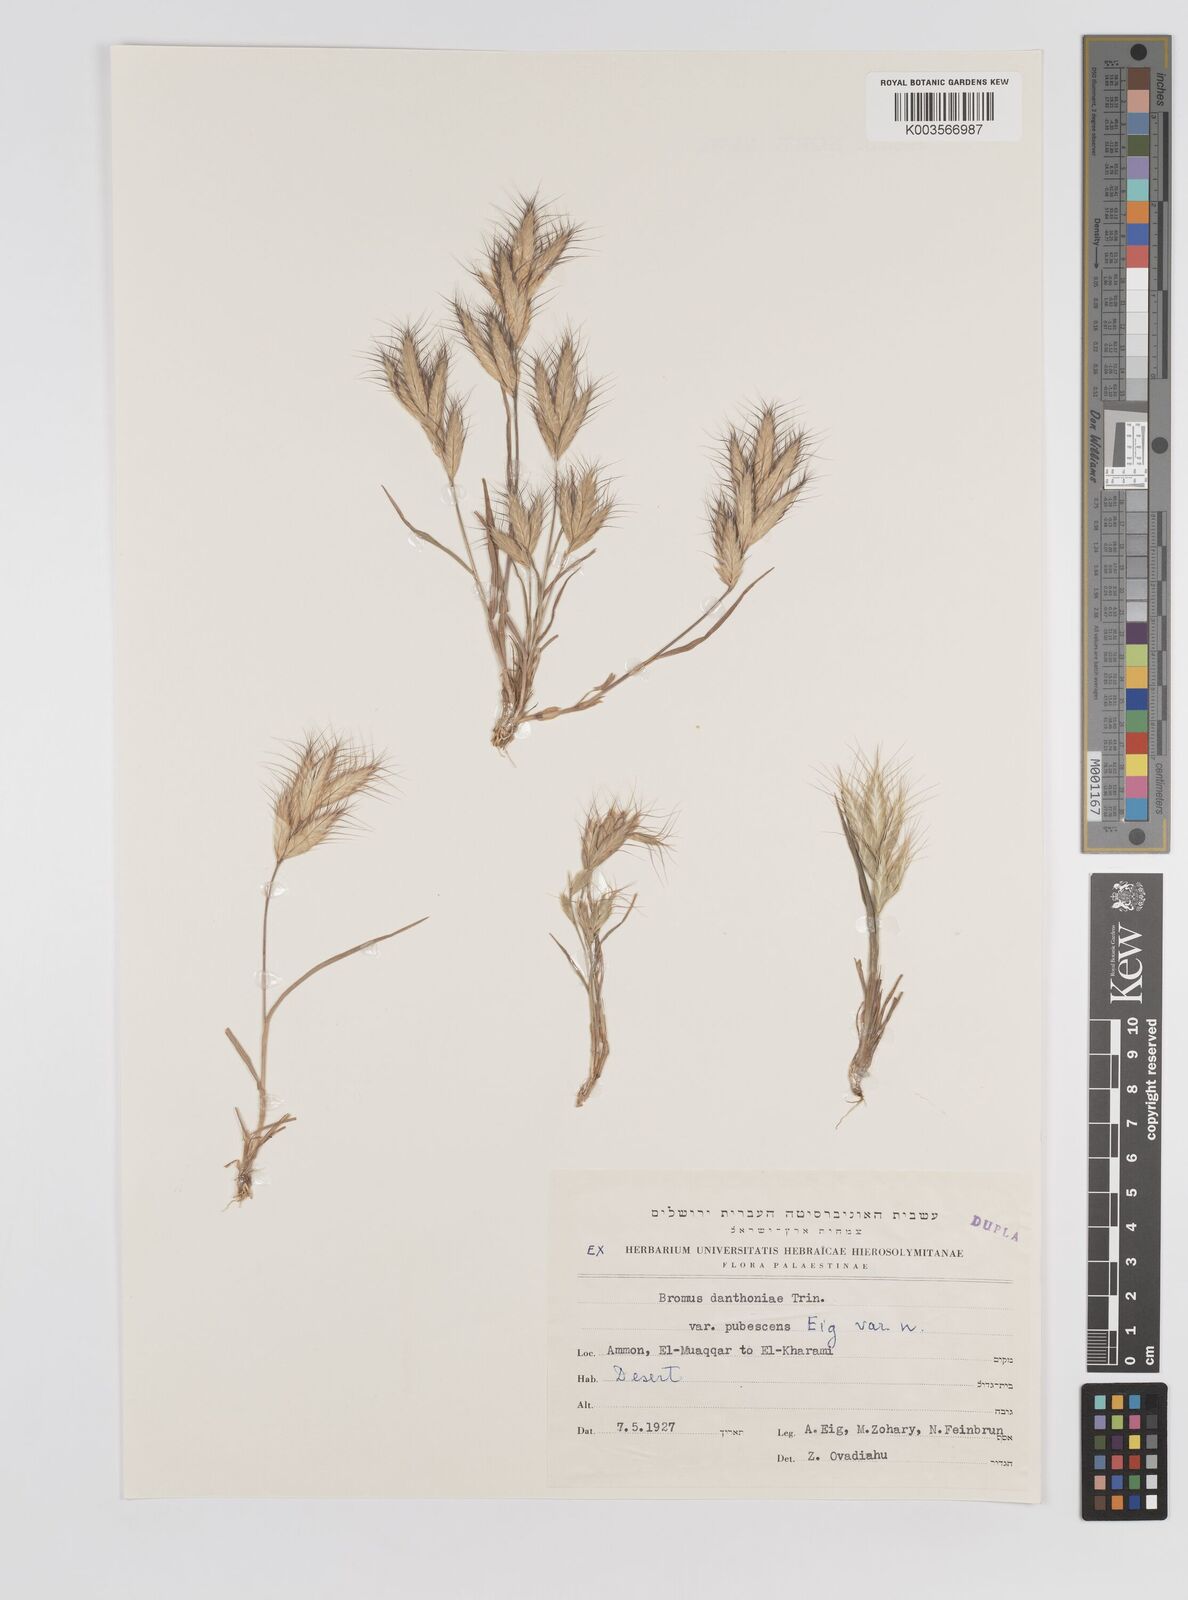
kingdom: Plantae
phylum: Tracheophyta
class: Liliopsida
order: Poales
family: Poaceae
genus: Bromus
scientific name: Bromus danthoniae
